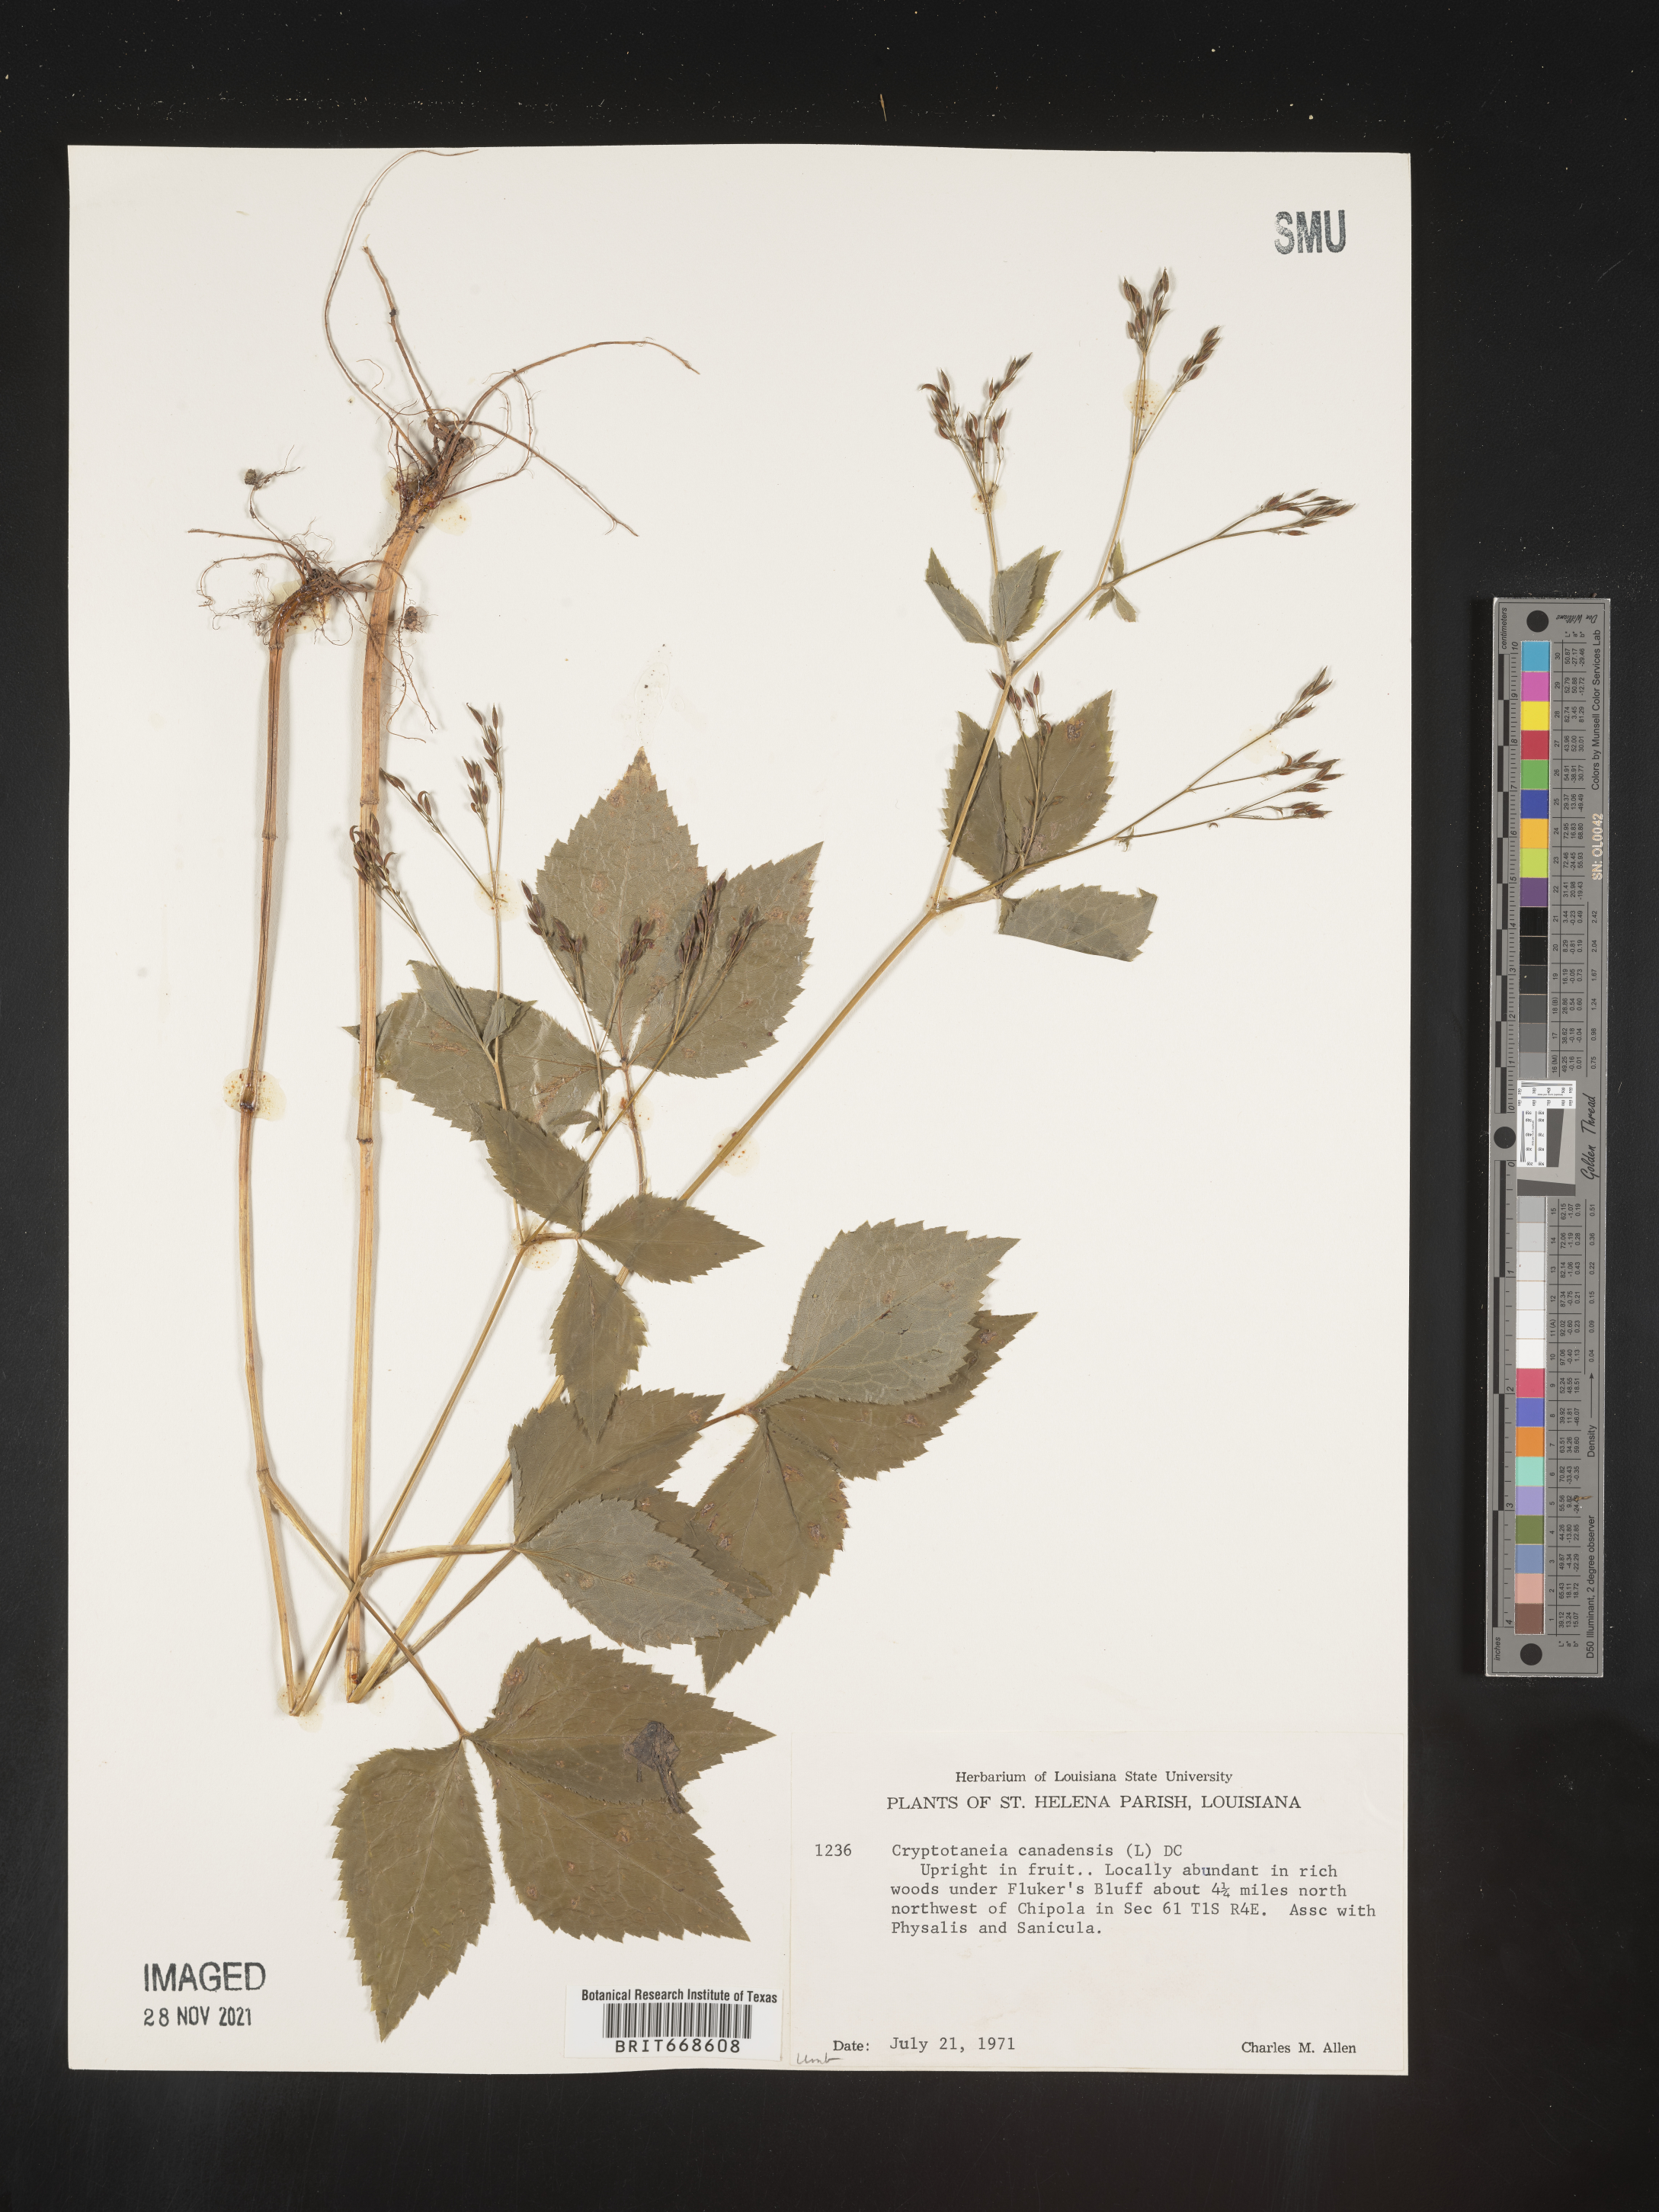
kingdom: Plantae
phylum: Tracheophyta
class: Magnoliopsida
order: Apiales
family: Apiaceae
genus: Cryptotaenia
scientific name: Cryptotaenia canadensis
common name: Honewort
